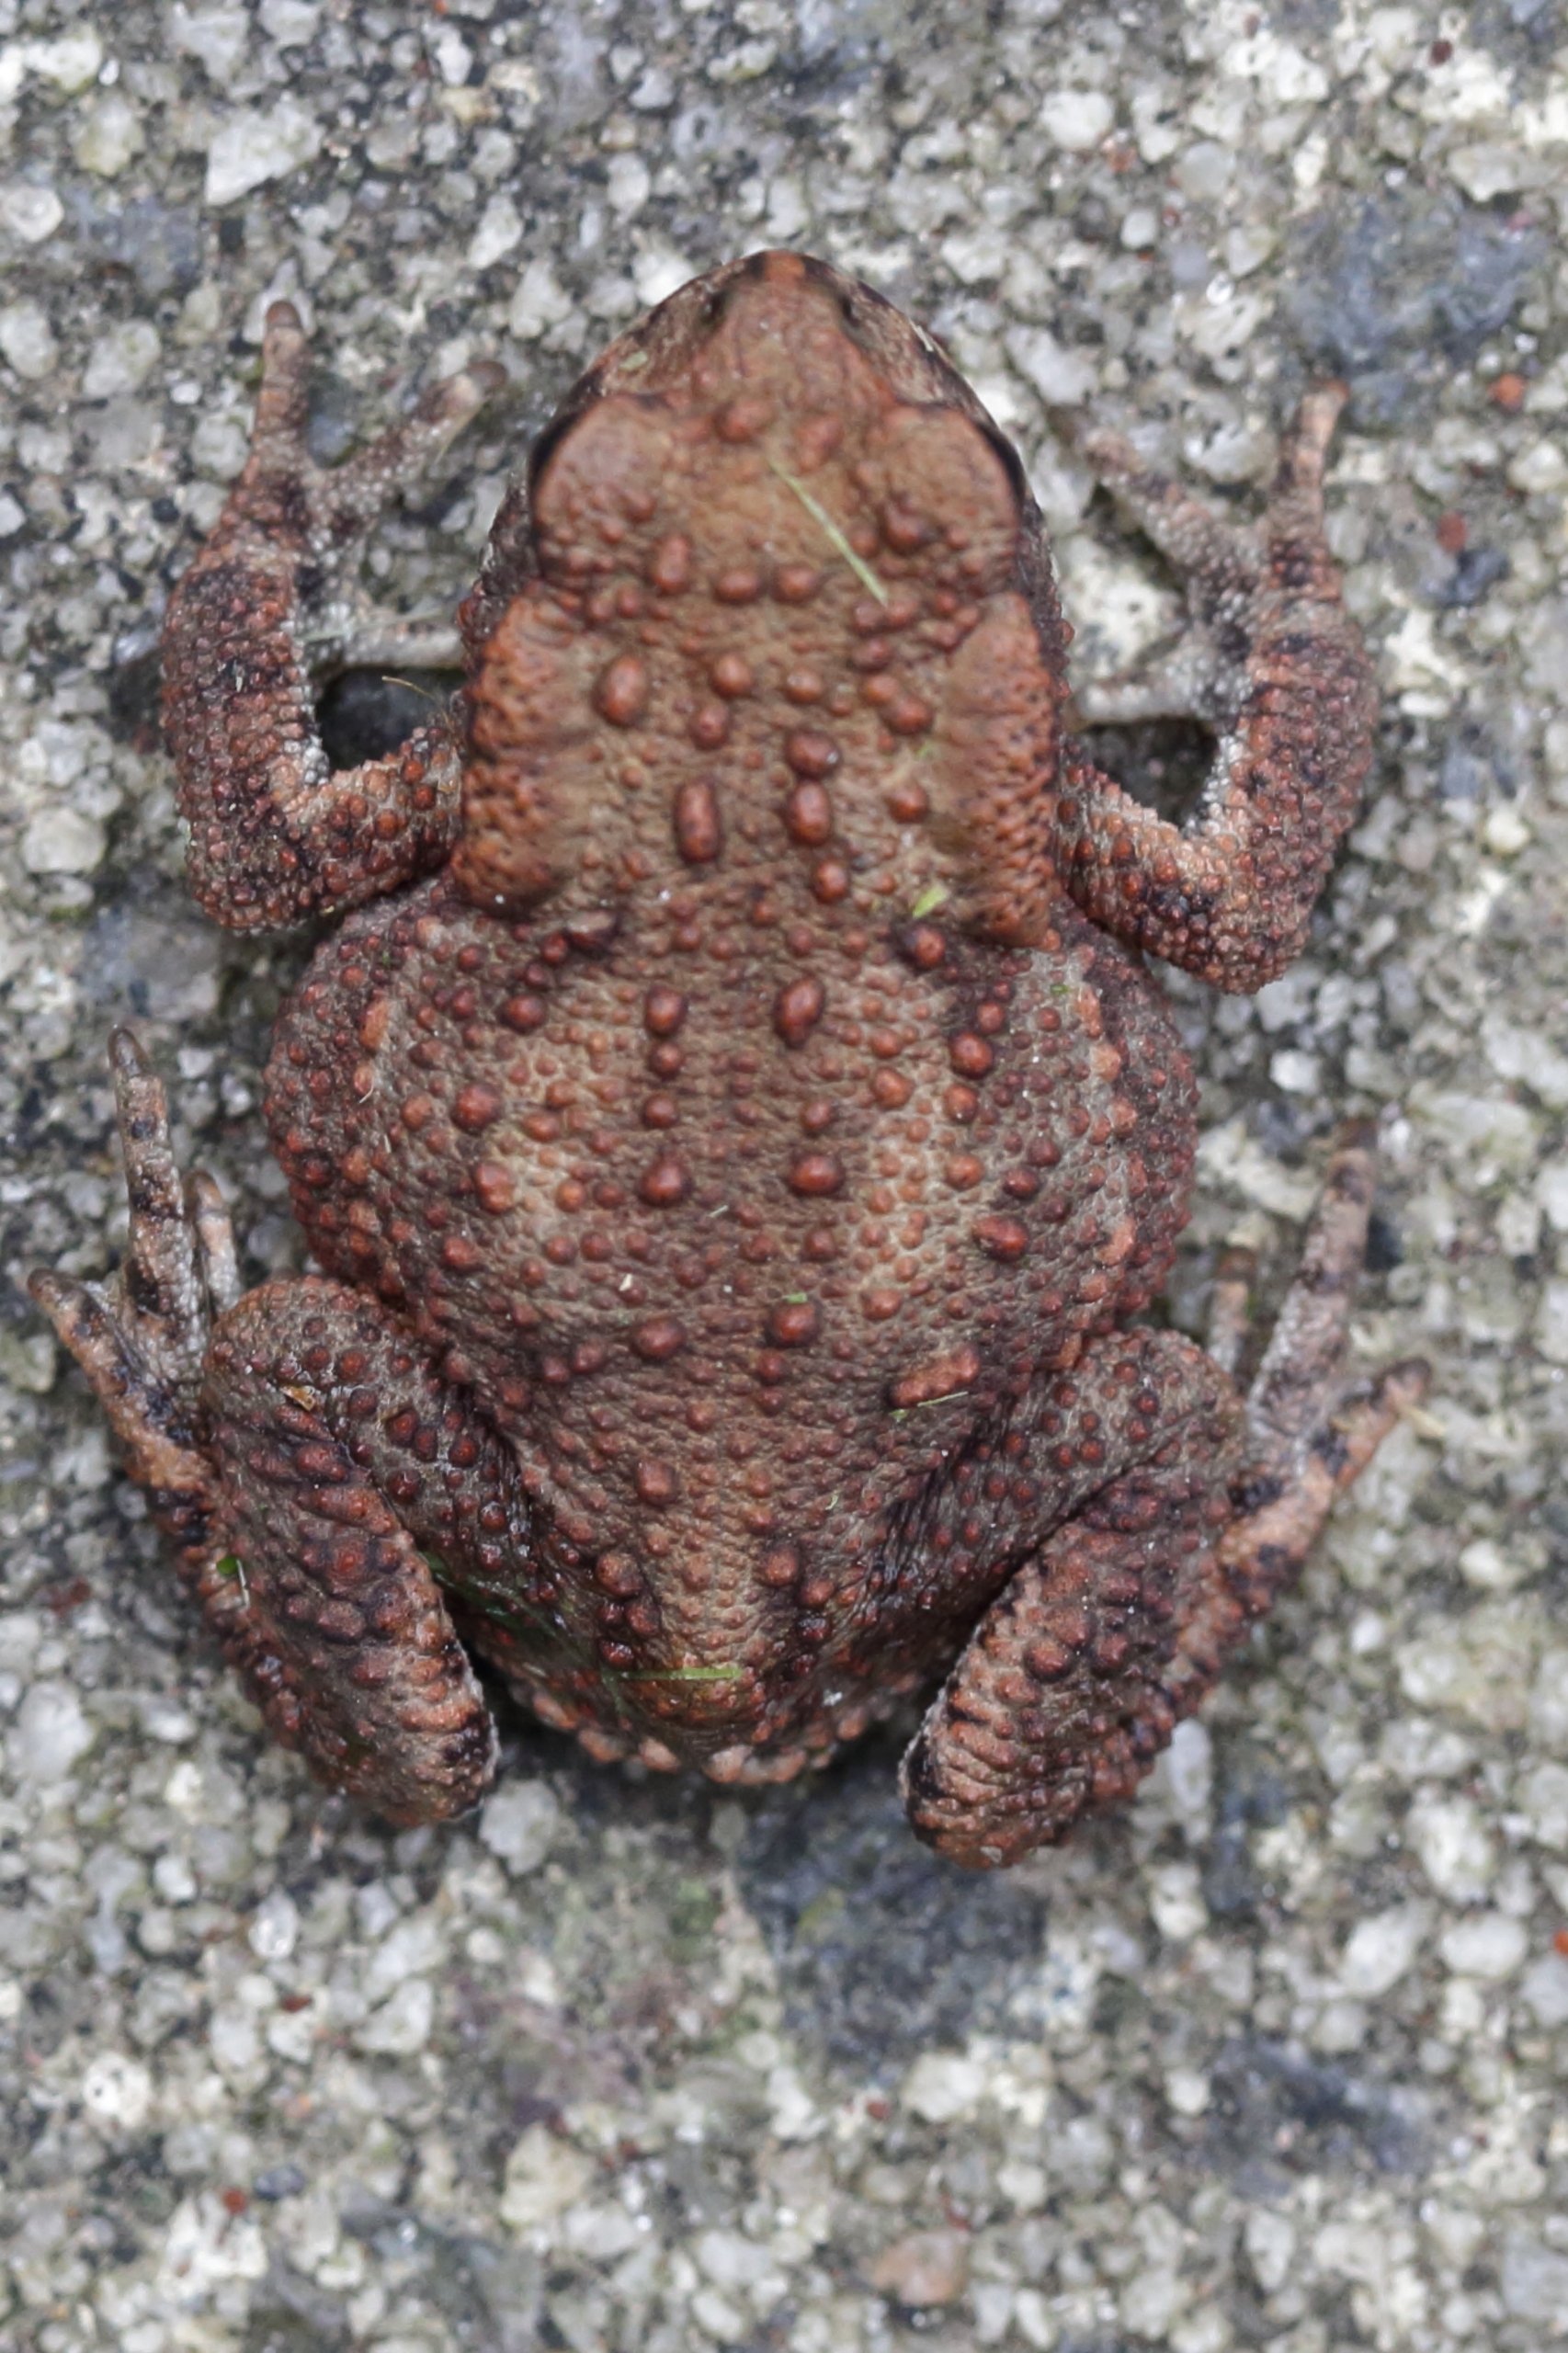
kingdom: Animalia
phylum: Chordata
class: Amphibia
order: Anura
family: Bufonidae
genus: Bufo
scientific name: Bufo bufo
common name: Skrubtudse
